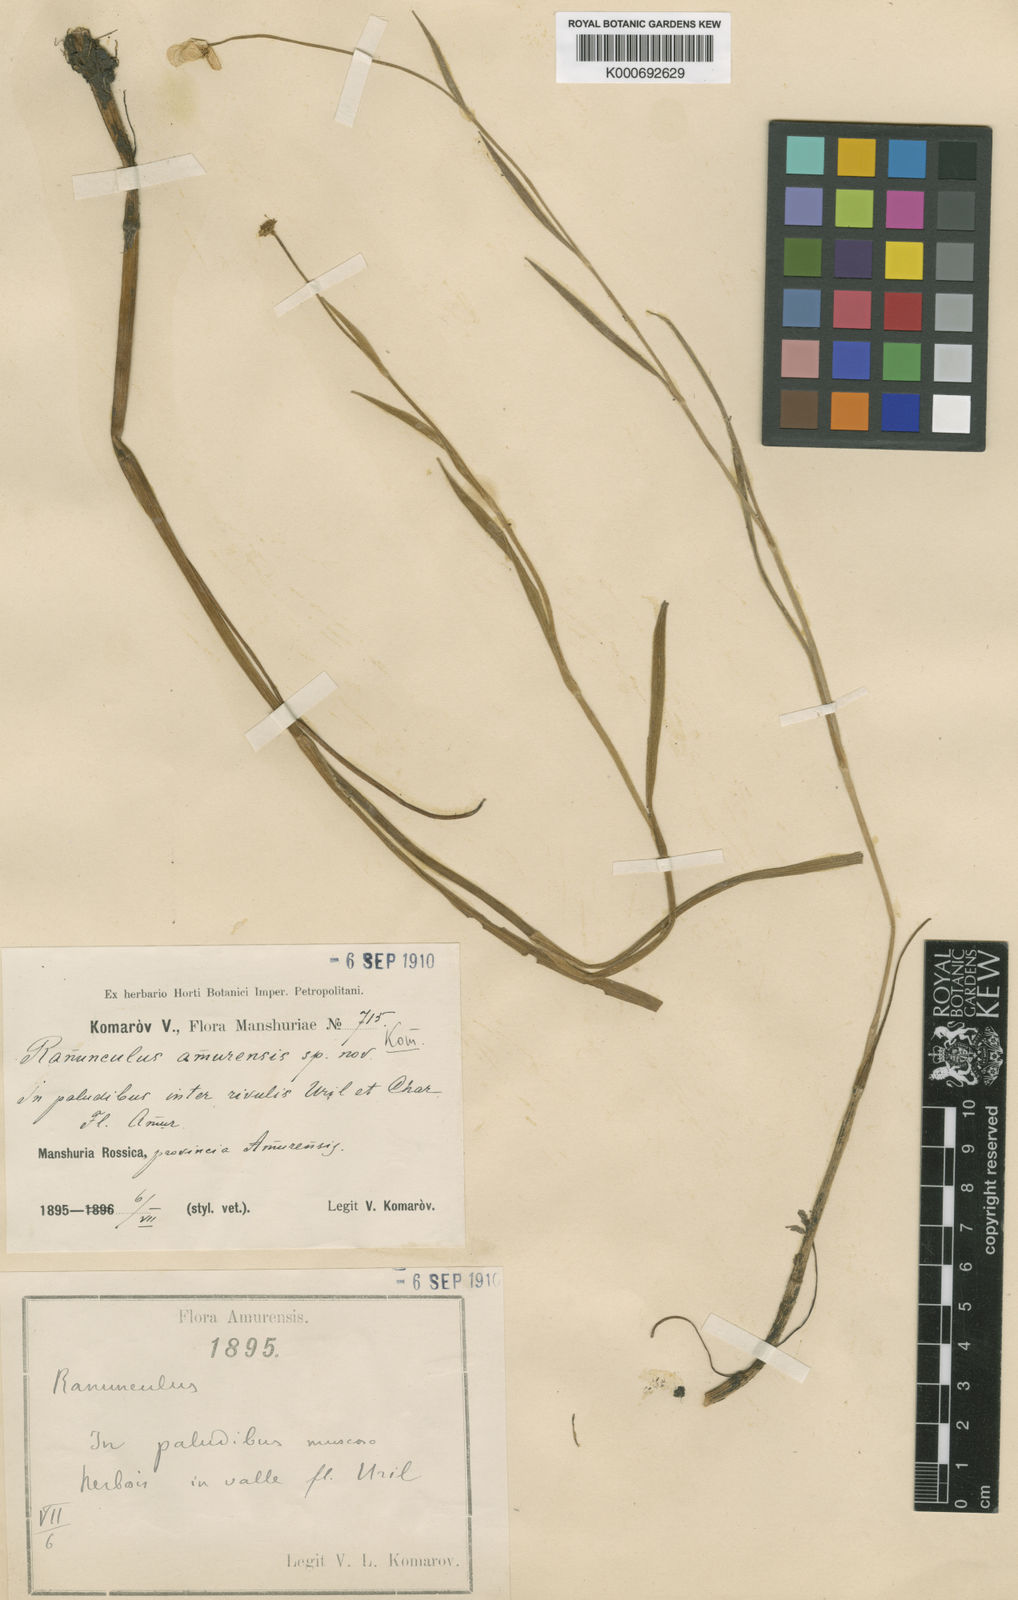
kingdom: Plantae
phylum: Tracheophyta
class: Magnoliopsida
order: Ranunculales
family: Ranunculaceae
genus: Ranunculus
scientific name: Ranunculus amurensis
